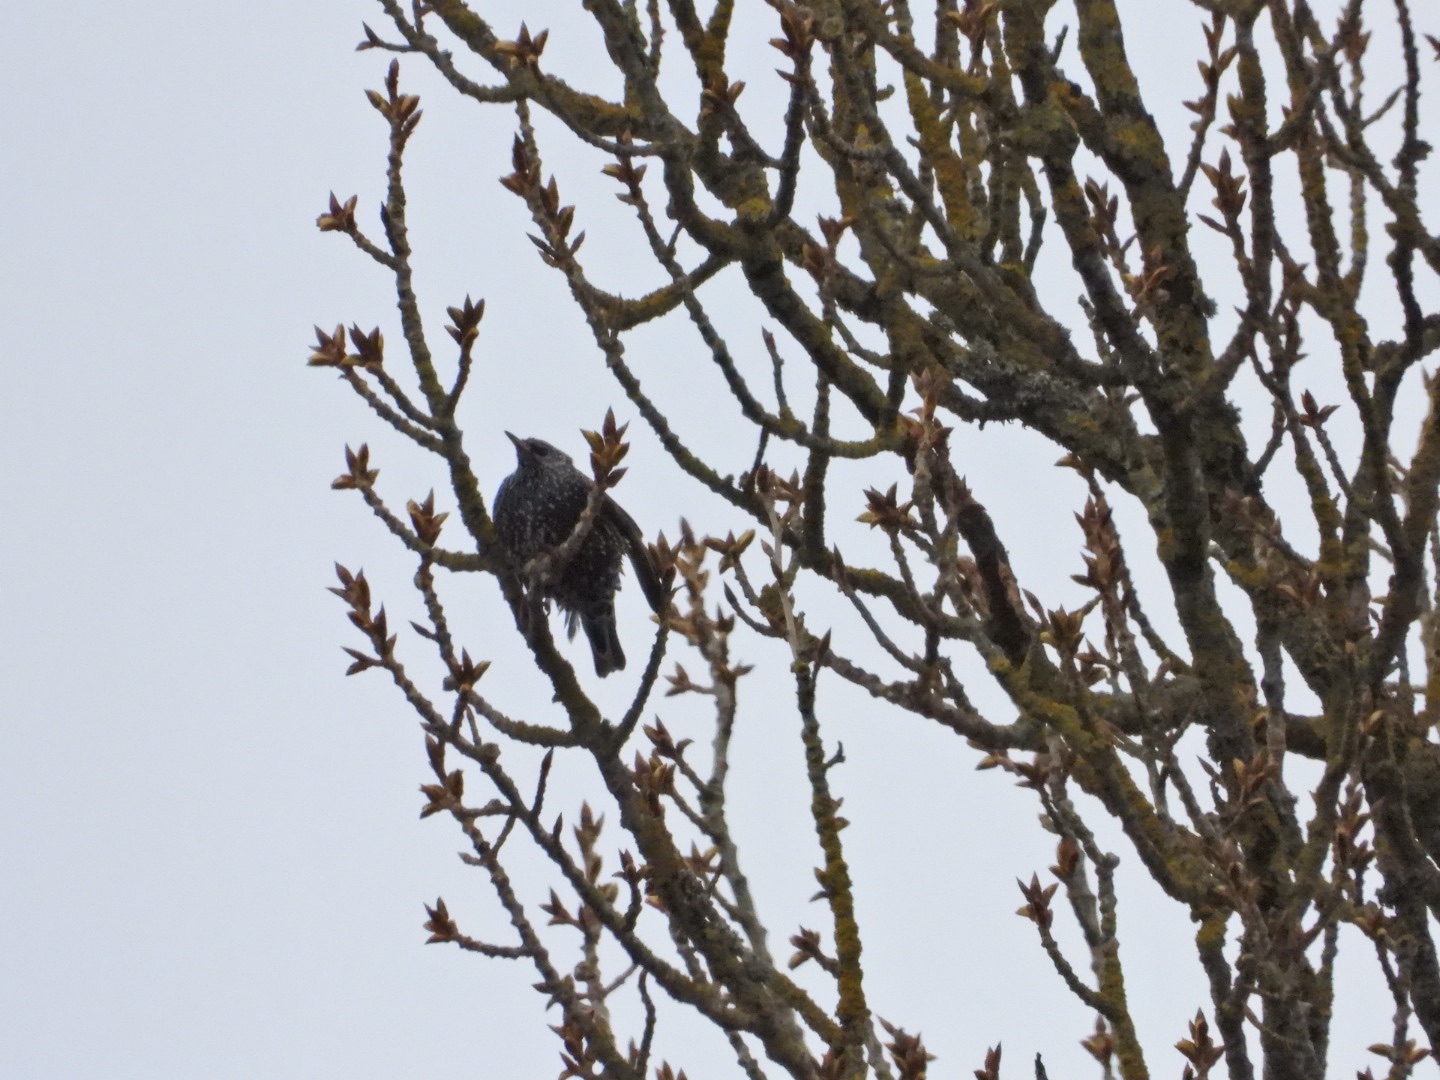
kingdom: Animalia
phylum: Chordata
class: Aves
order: Passeriformes
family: Sturnidae
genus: Sturnus
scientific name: Sturnus vulgaris
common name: Stær
